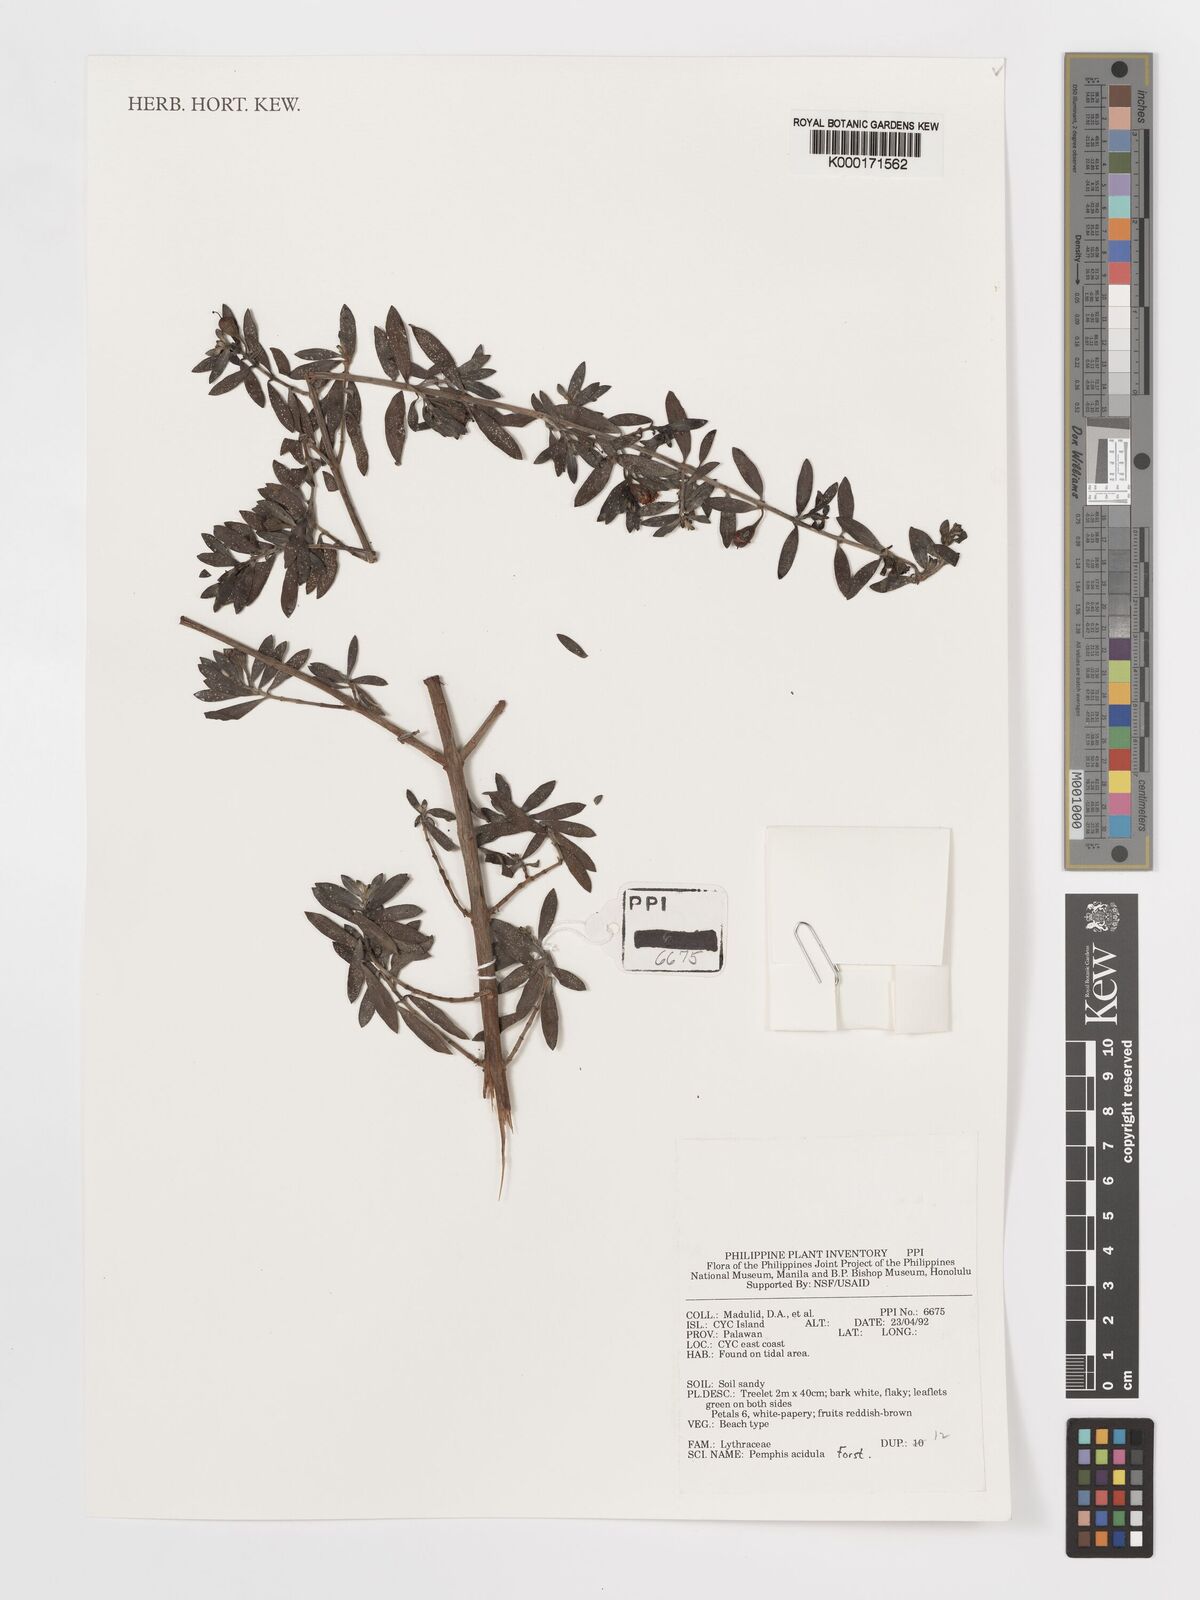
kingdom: Plantae
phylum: Tracheophyta
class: Magnoliopsida
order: Myrtales
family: Lythraceae
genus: Pemphis
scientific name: Pemphis acidula
